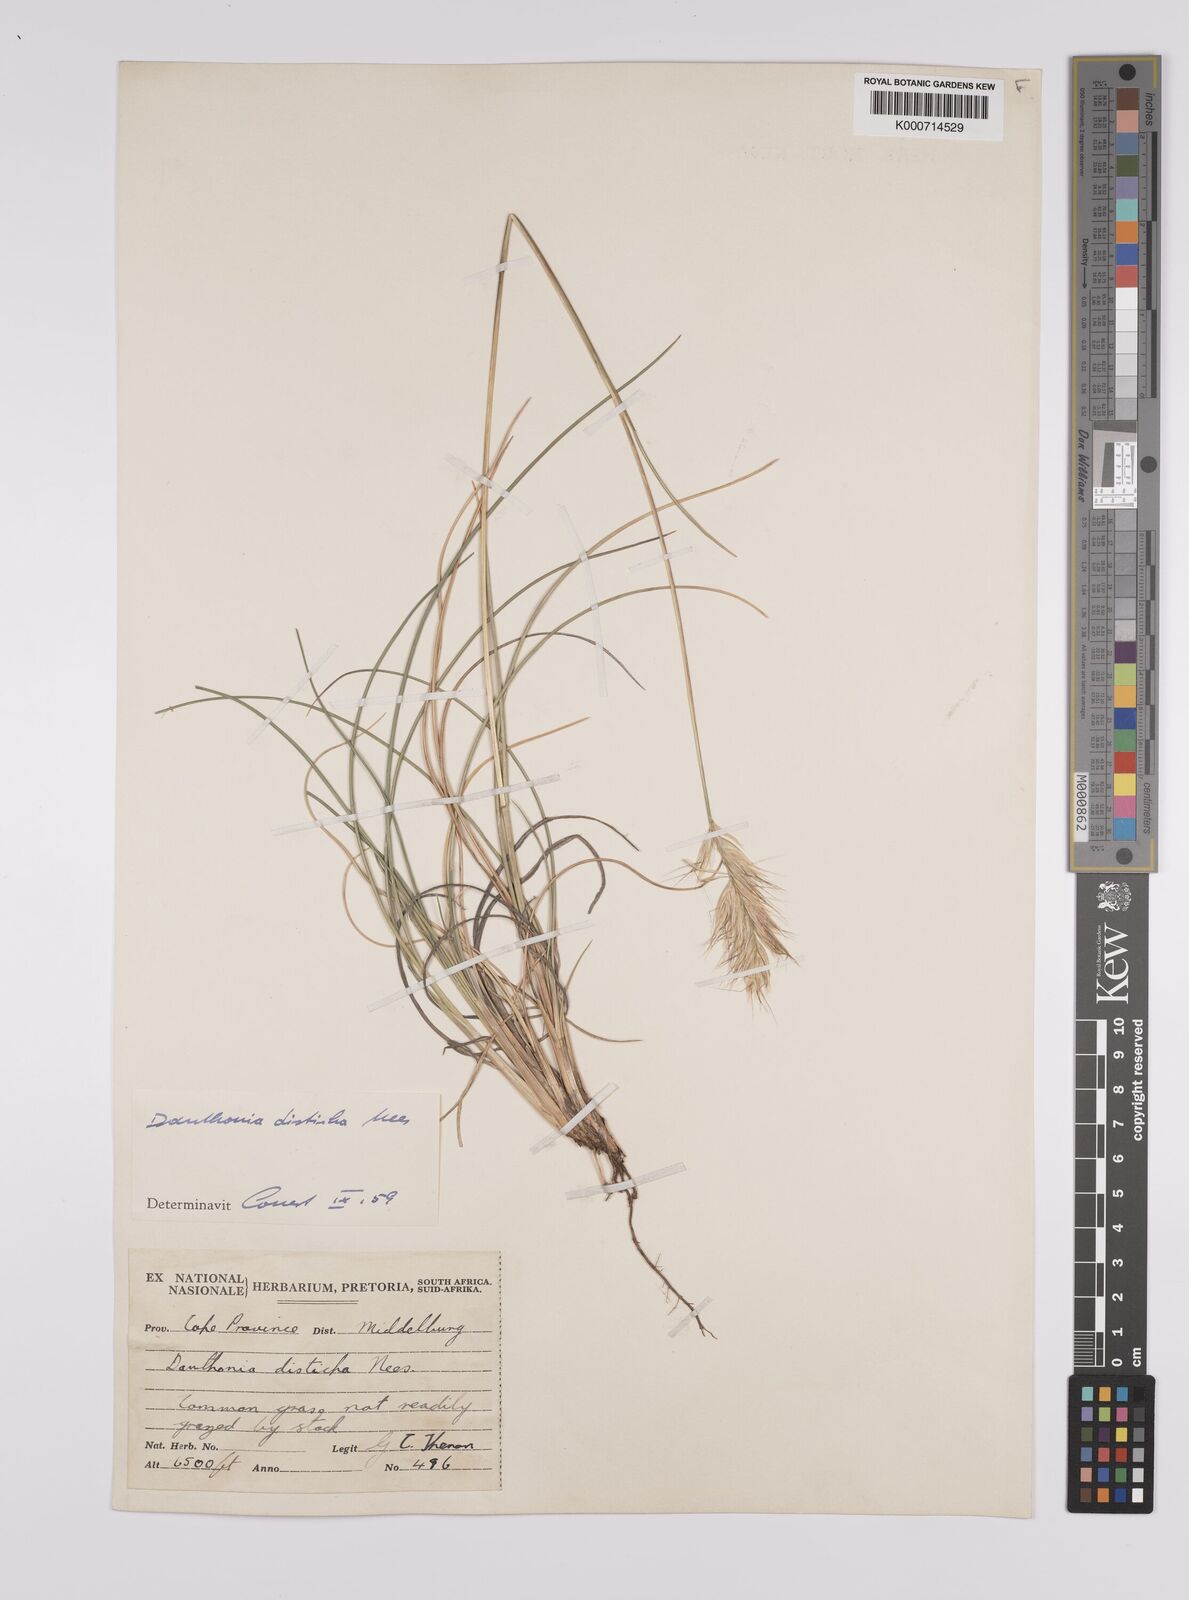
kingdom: Plantae
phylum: Tracheophyta
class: Liliopsida
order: Poales
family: Poaceae
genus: Tenaxia
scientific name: Tenaxia disticha
